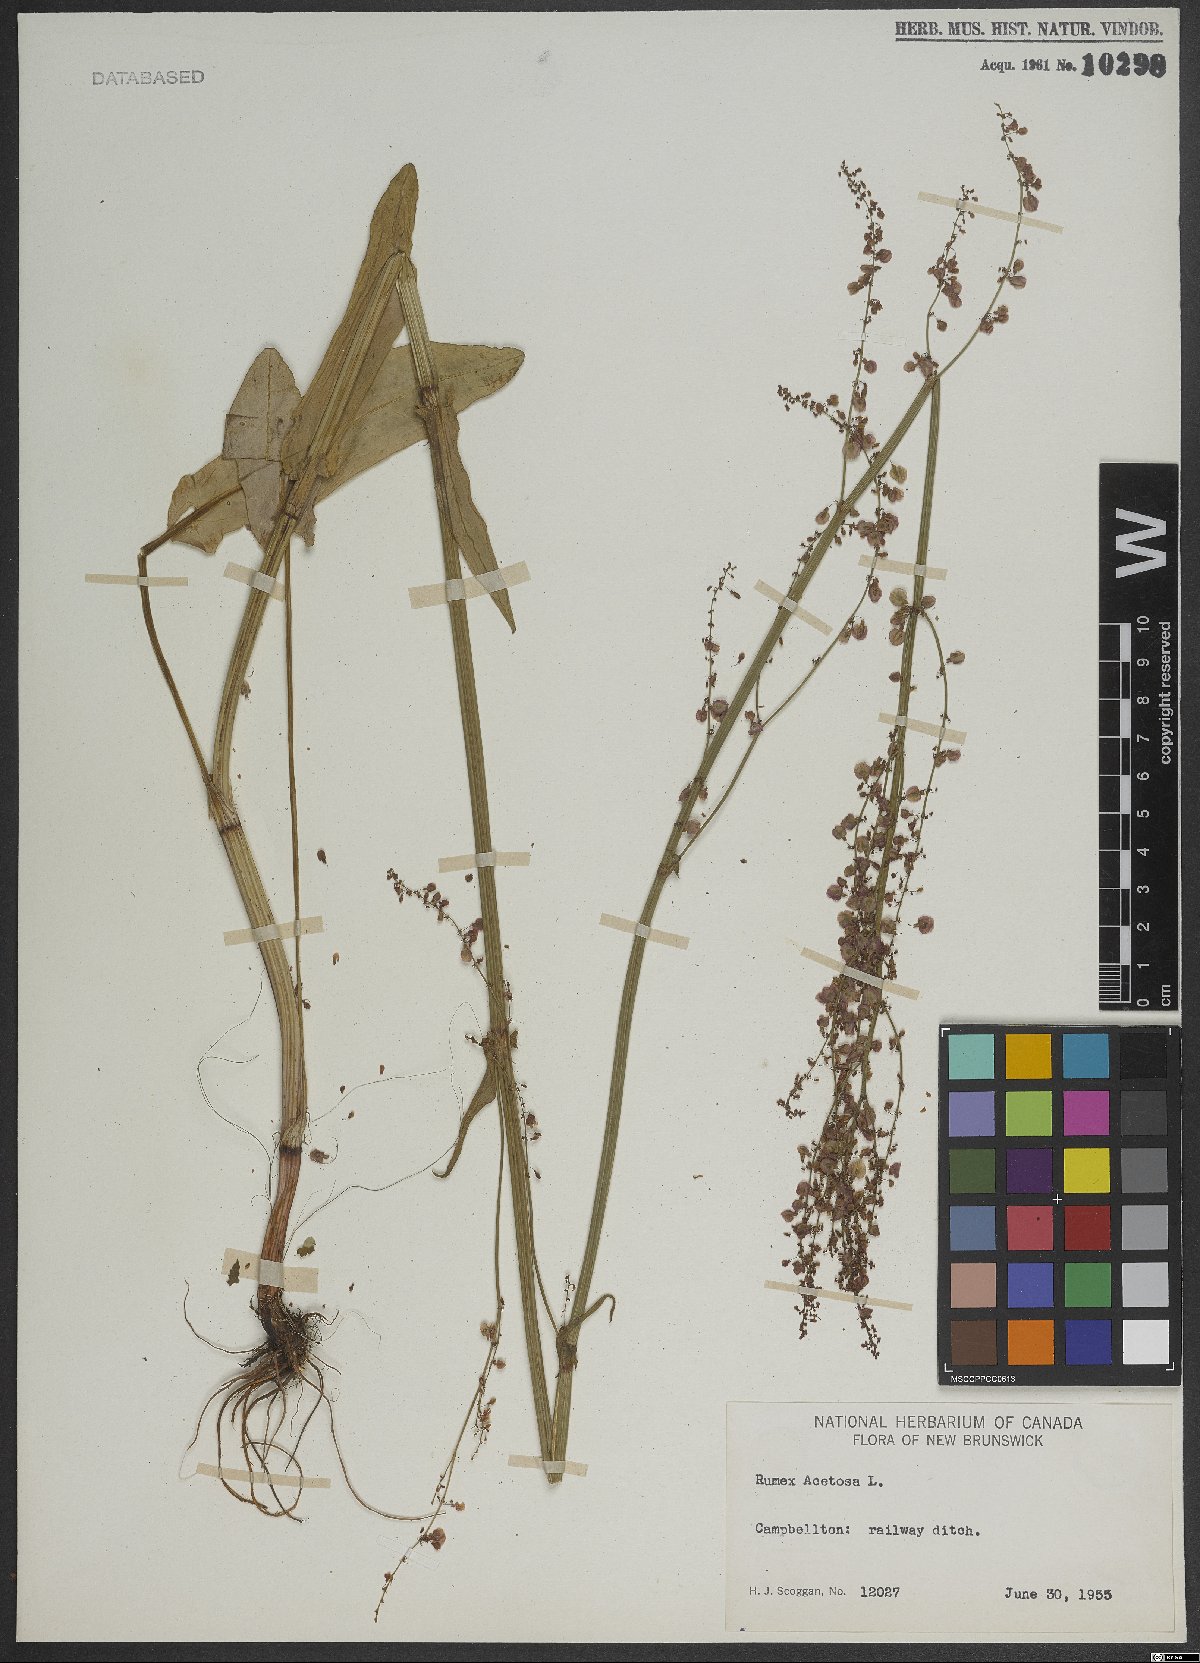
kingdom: Plantae
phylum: Tracheophyta
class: Magnoliopsida
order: Caryophyllales
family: Polygonaceae
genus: Rumex
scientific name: Rumex acetosa
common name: Garden sorrel
